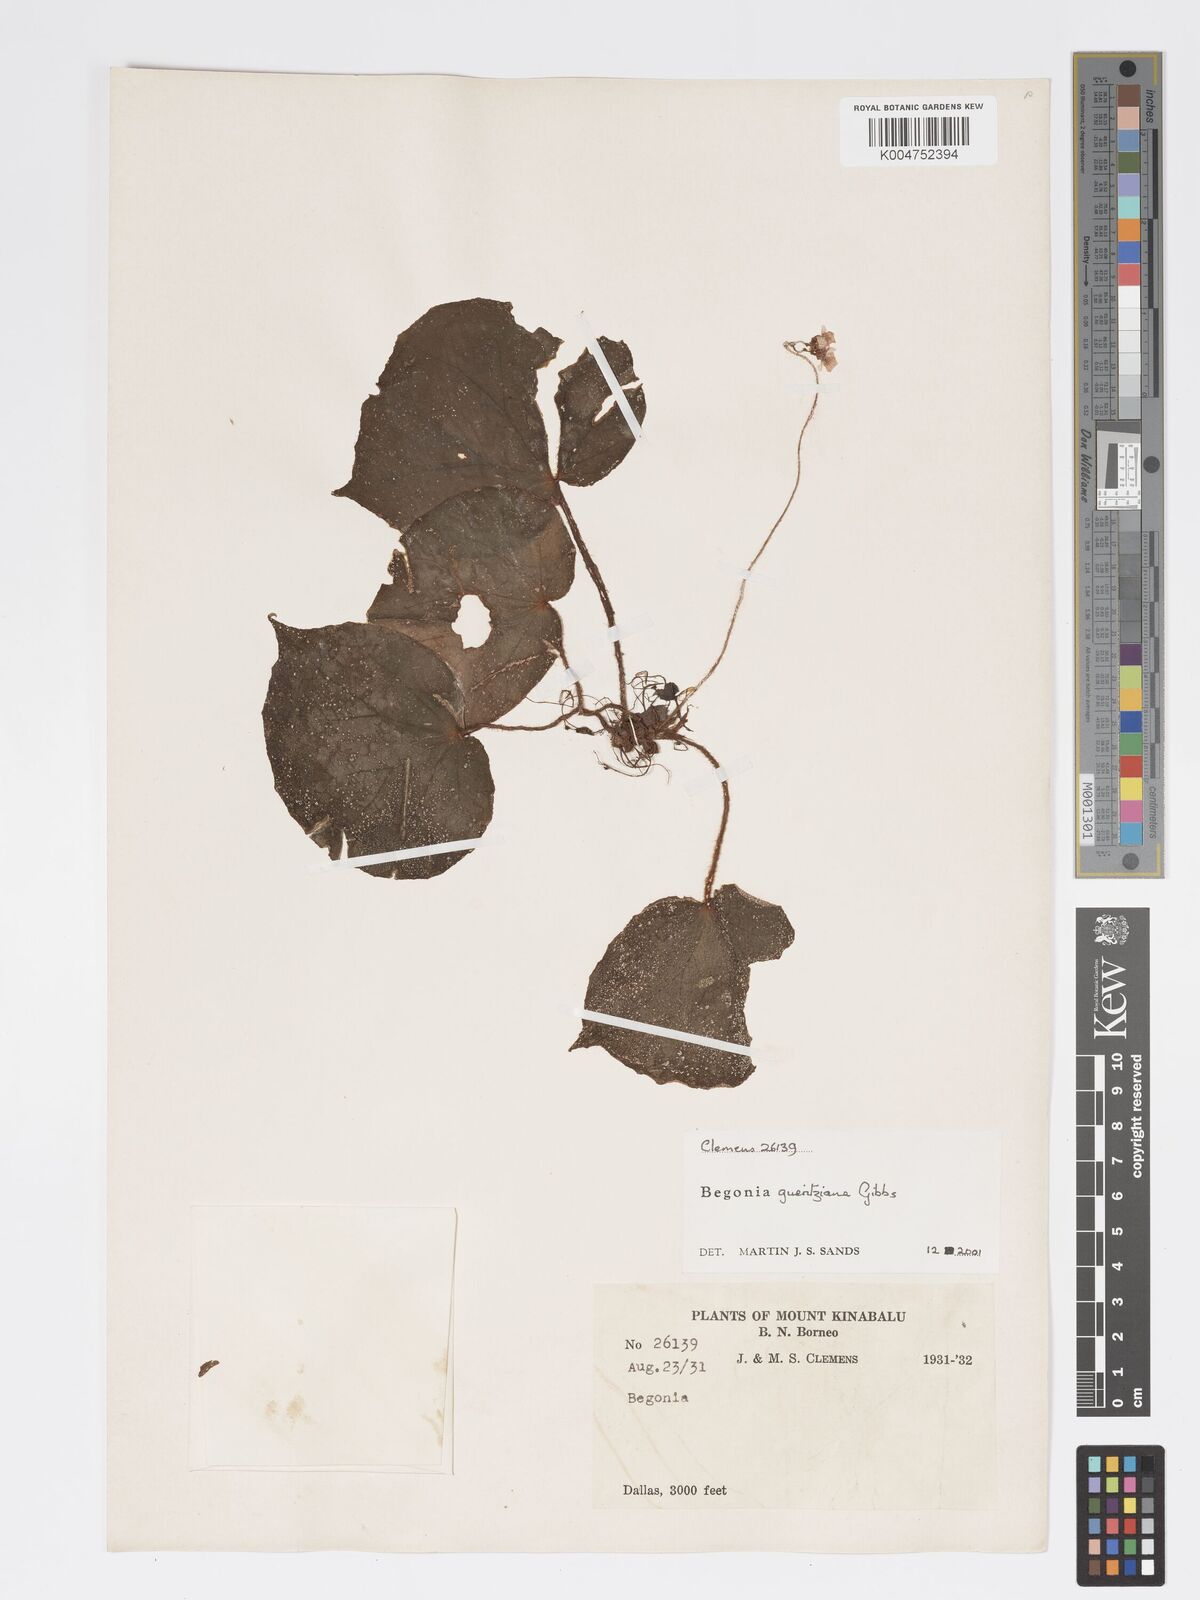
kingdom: Plantae
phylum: Tracheophyta
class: Magnoliopsida
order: Cucurbitales
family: Begoniaceae
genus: Begonia
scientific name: Begonia gueritziana
